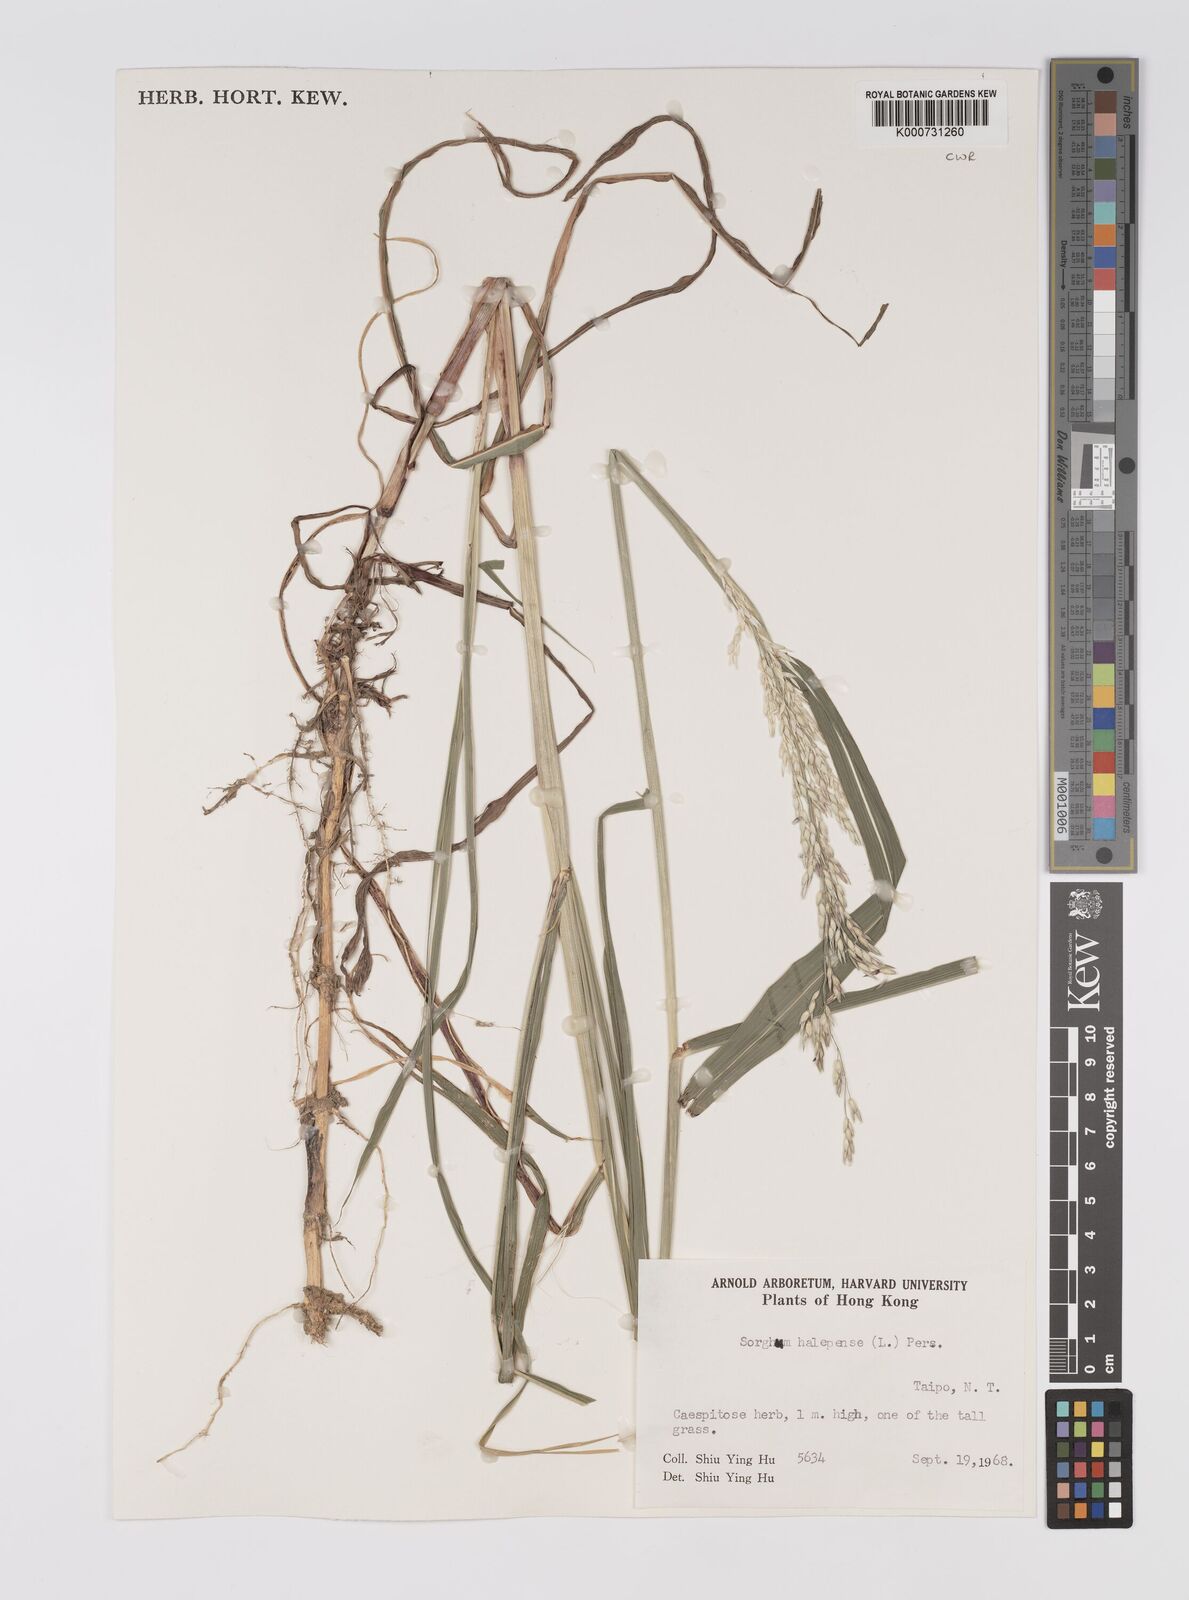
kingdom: Plantae
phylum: Tracheophyta
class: Liliopsida
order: Poales
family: Poaceae
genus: Sorghum
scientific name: Sorghum halepense
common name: Johnson-grass
